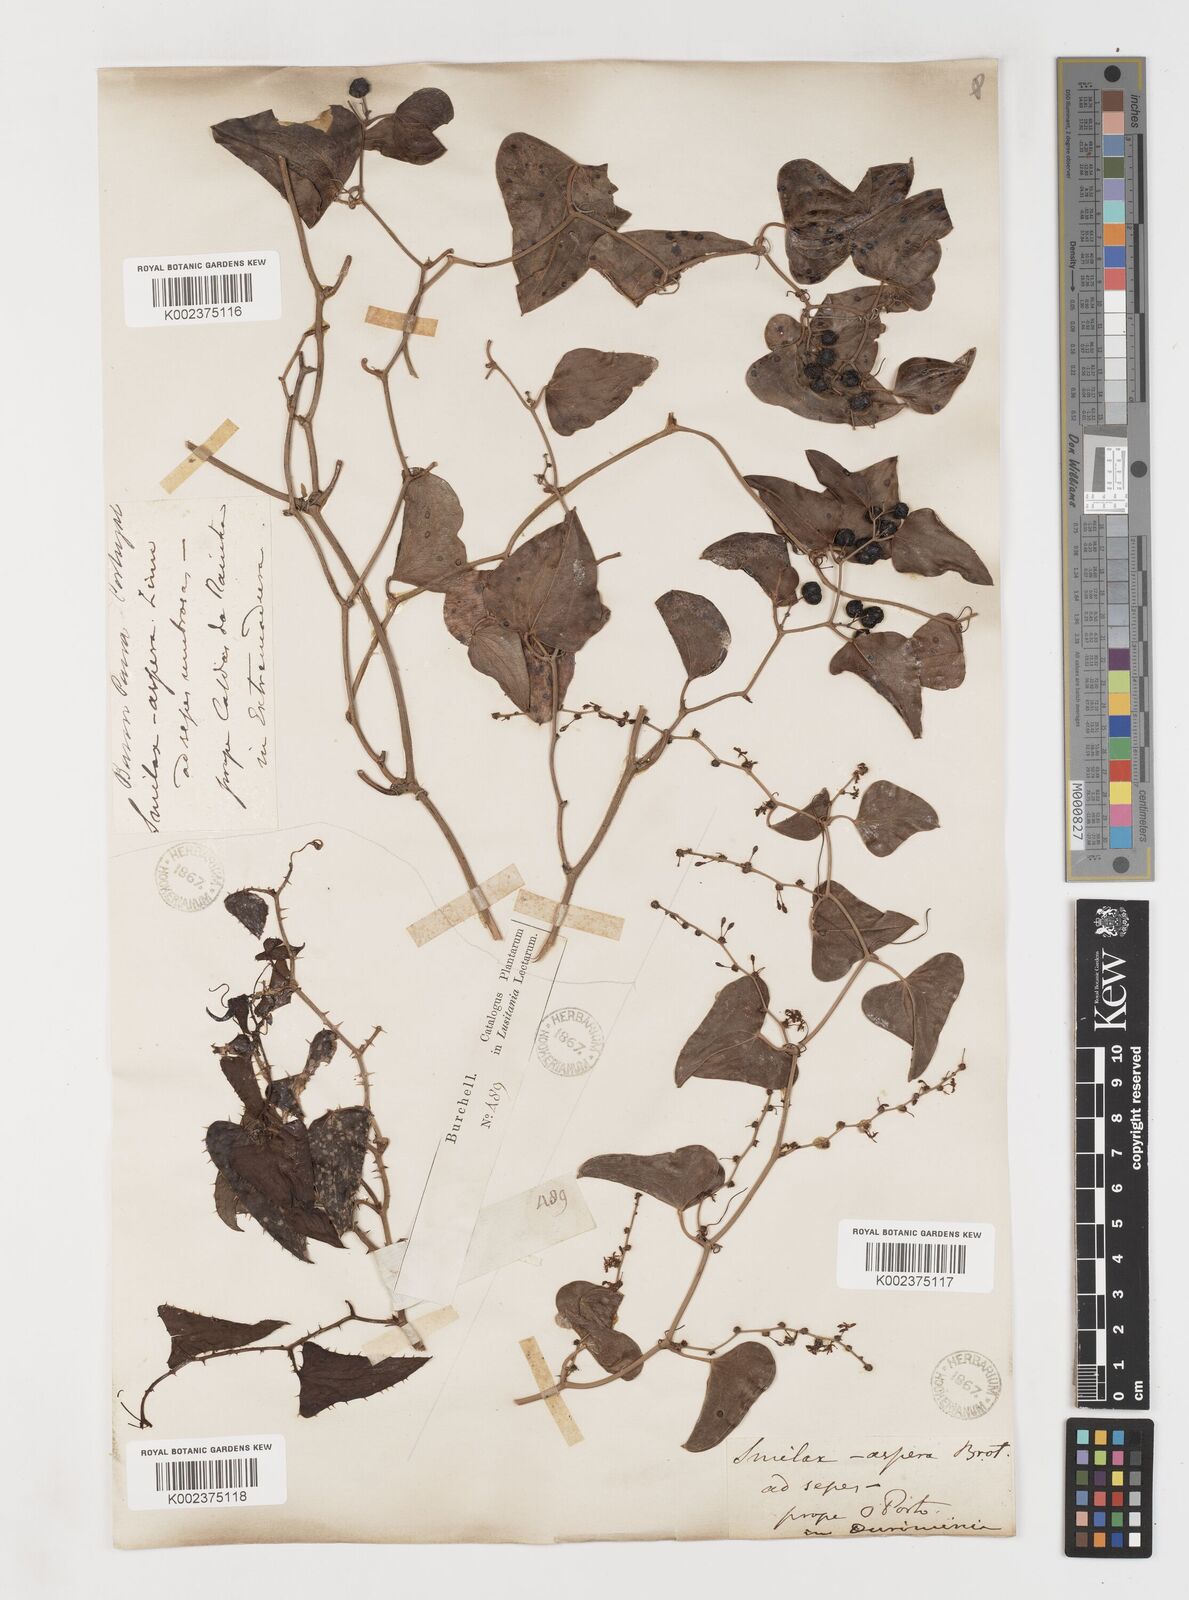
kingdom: Plantae
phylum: Tracheophyta
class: Liliopsida
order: Liliales
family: Smilacaceae
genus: Smilax
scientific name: Smilax aspera
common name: Common smilax
